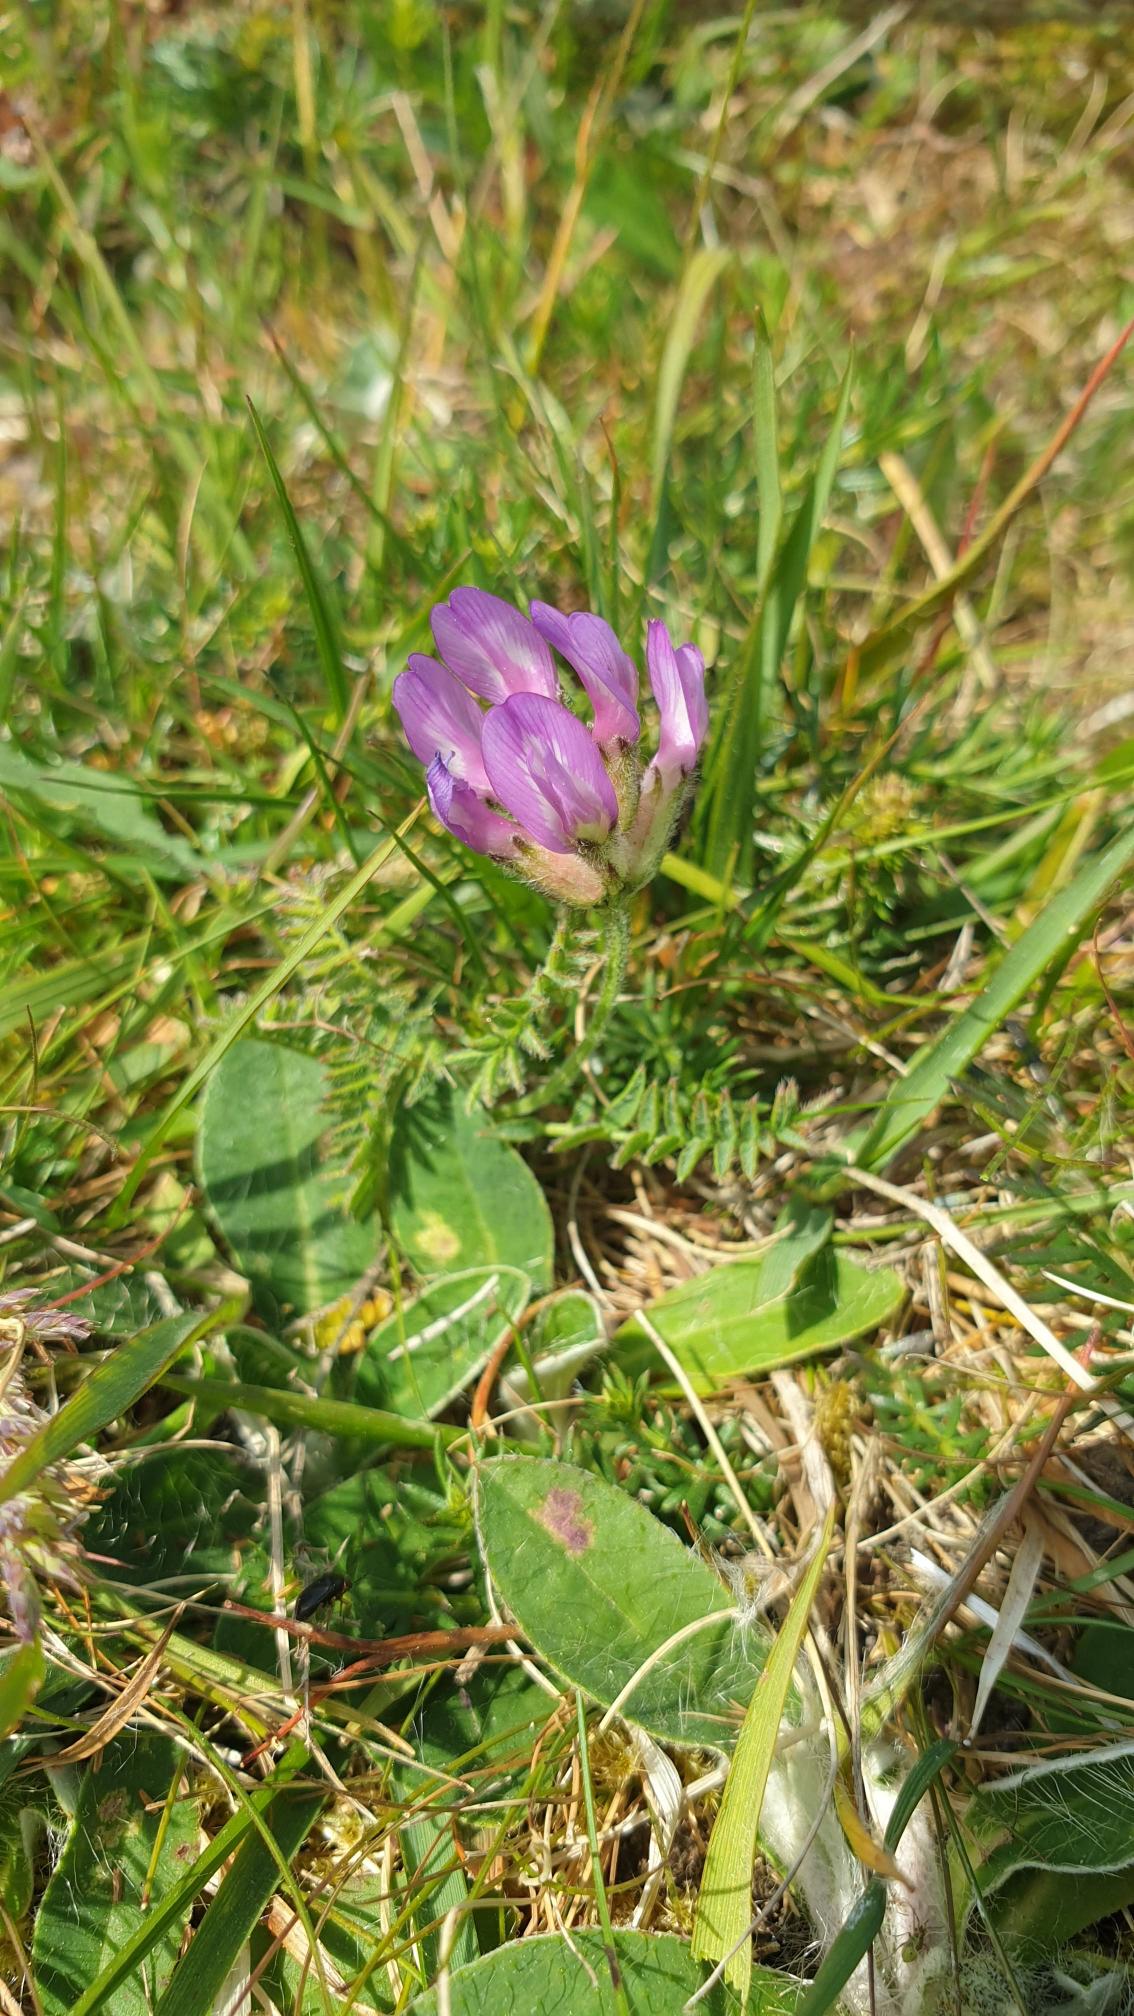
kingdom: Plantae
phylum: Tracheophyta
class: Magnoliopsida
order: Fabales
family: Fabaceae
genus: Astragalus
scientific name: Astragalus danicus
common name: Dansk astragel
